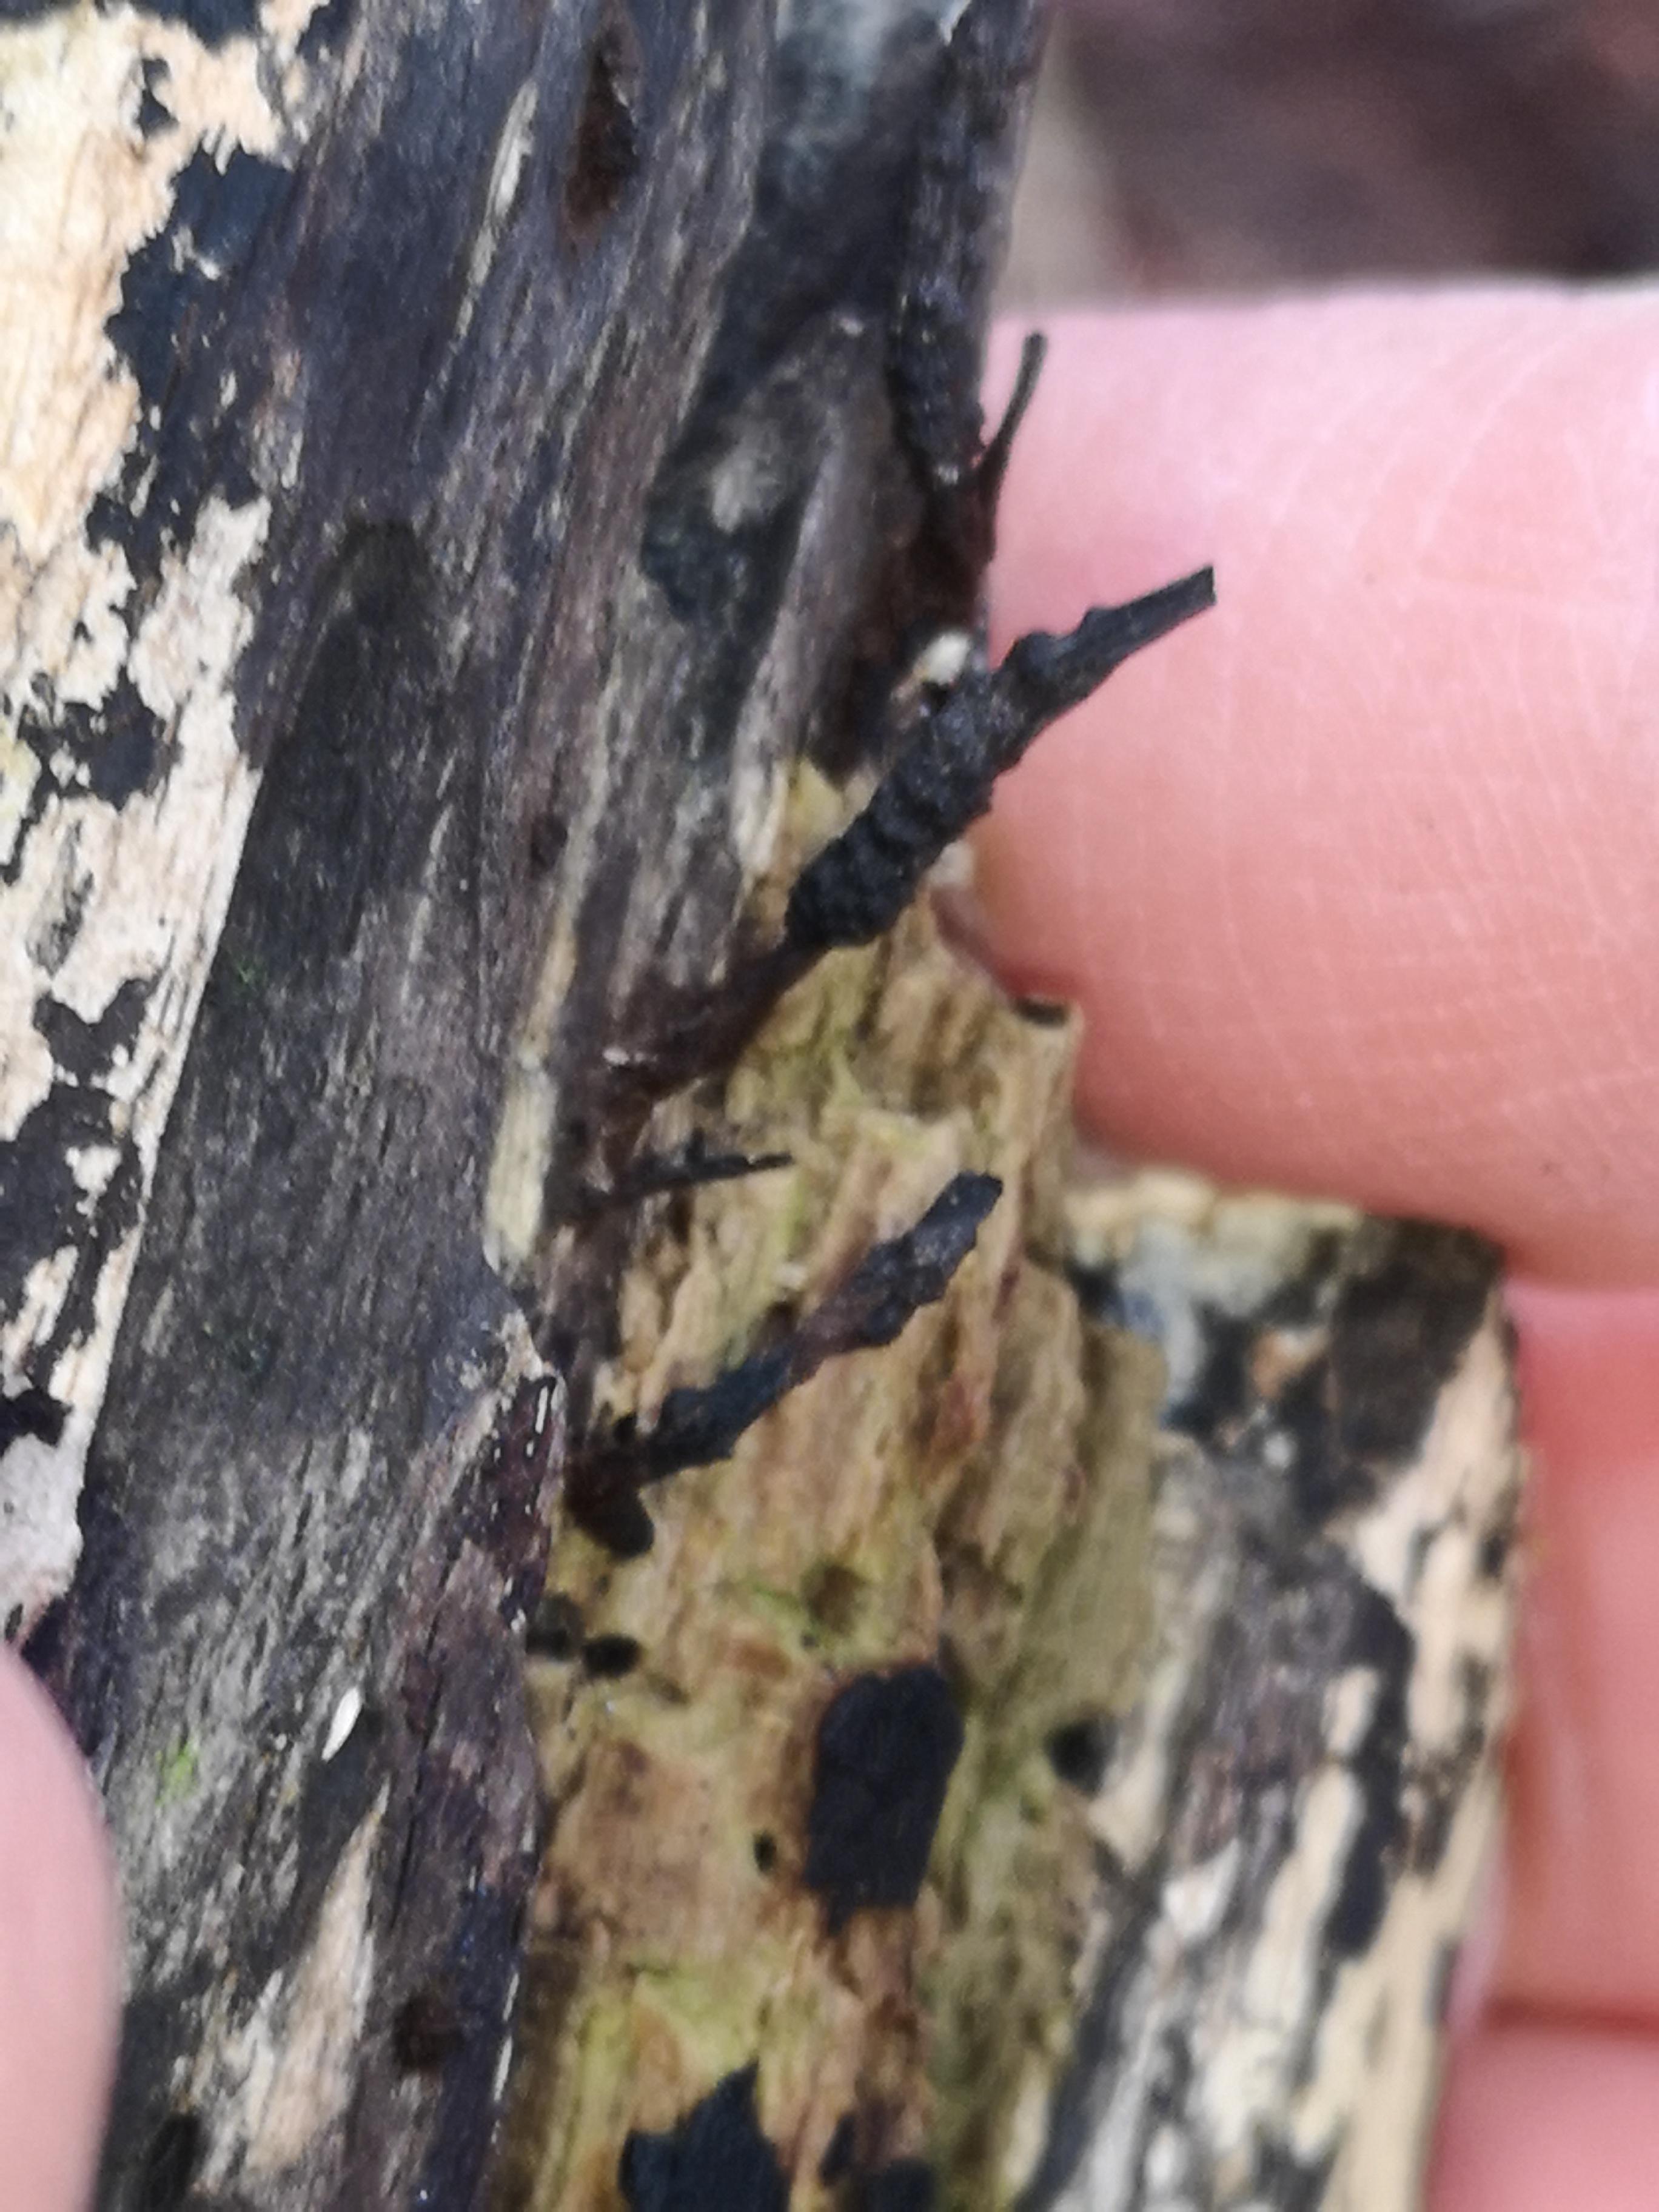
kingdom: Fungi
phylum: Ascomycota
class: Sordariomycetes
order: Xylariales
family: Xylariaceae
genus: Xylaria
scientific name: Xylaria hypoxylon
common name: grenet stødsvamp
